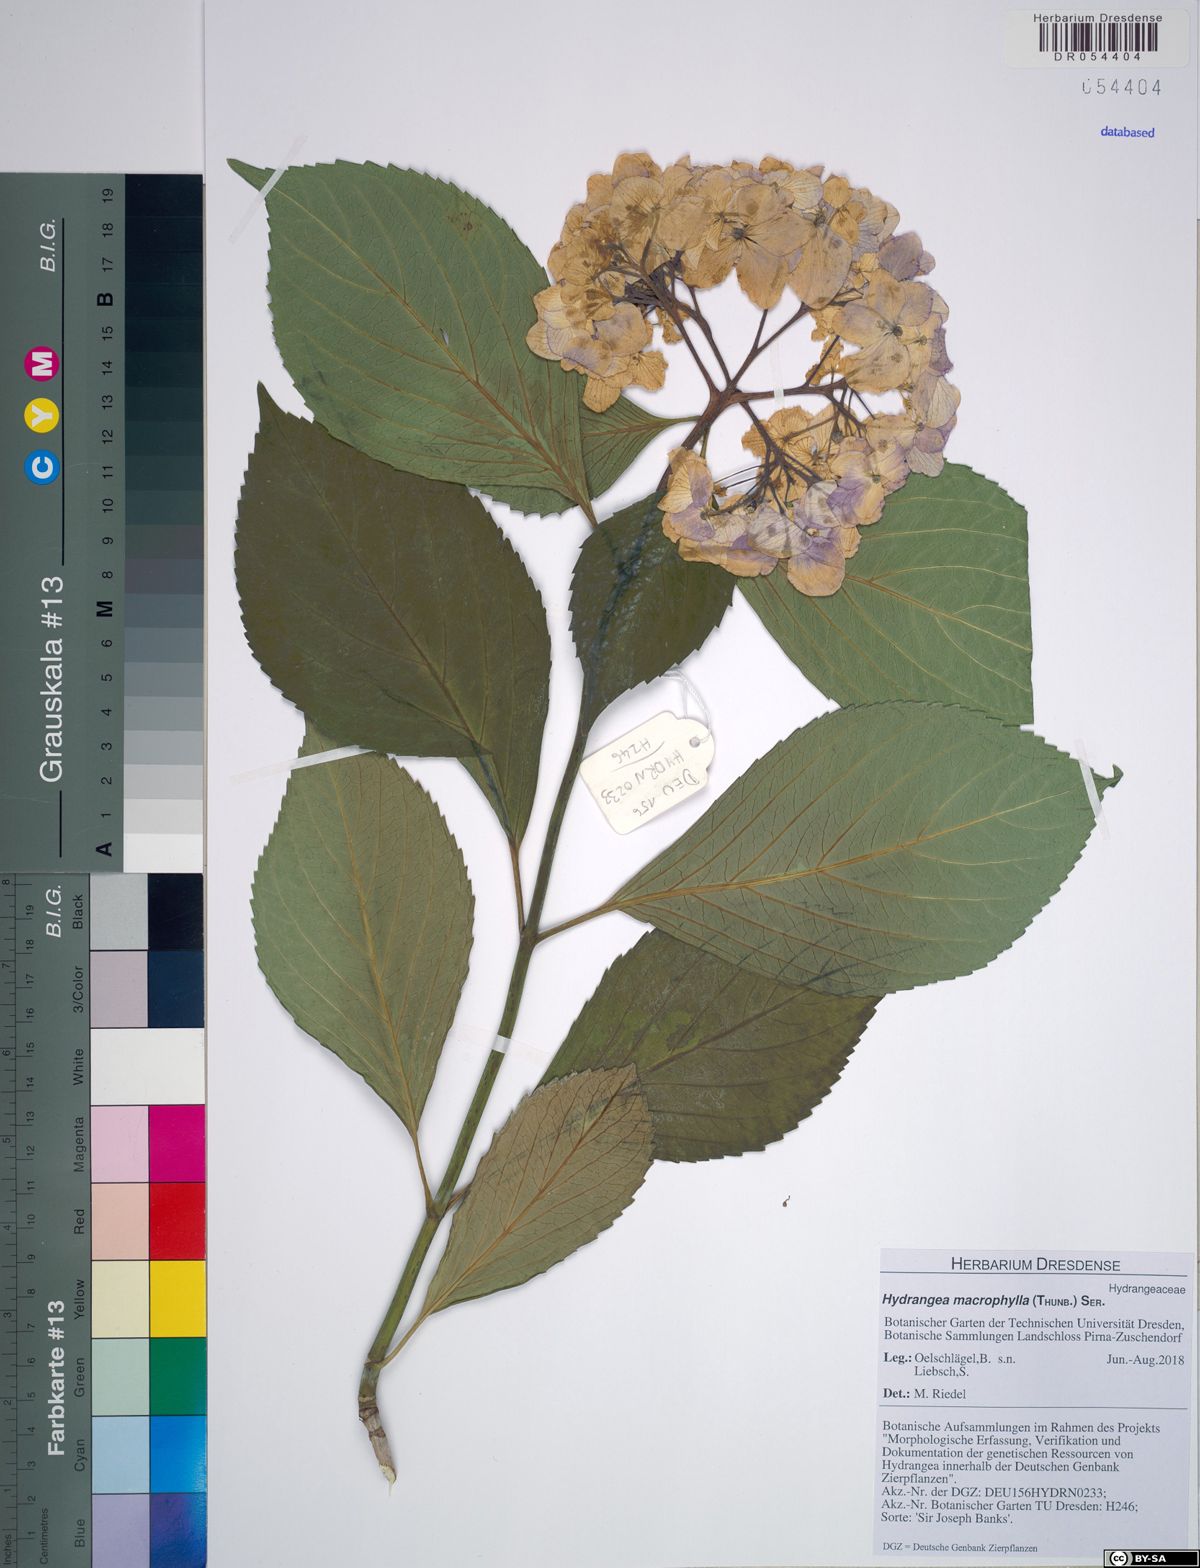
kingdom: Plantae
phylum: Tracheophyta
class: Magnoliopsida
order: Cornales
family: Hydrangeaceae
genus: Hydrangea
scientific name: Hydrangea macrophylla
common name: Hydrangea
